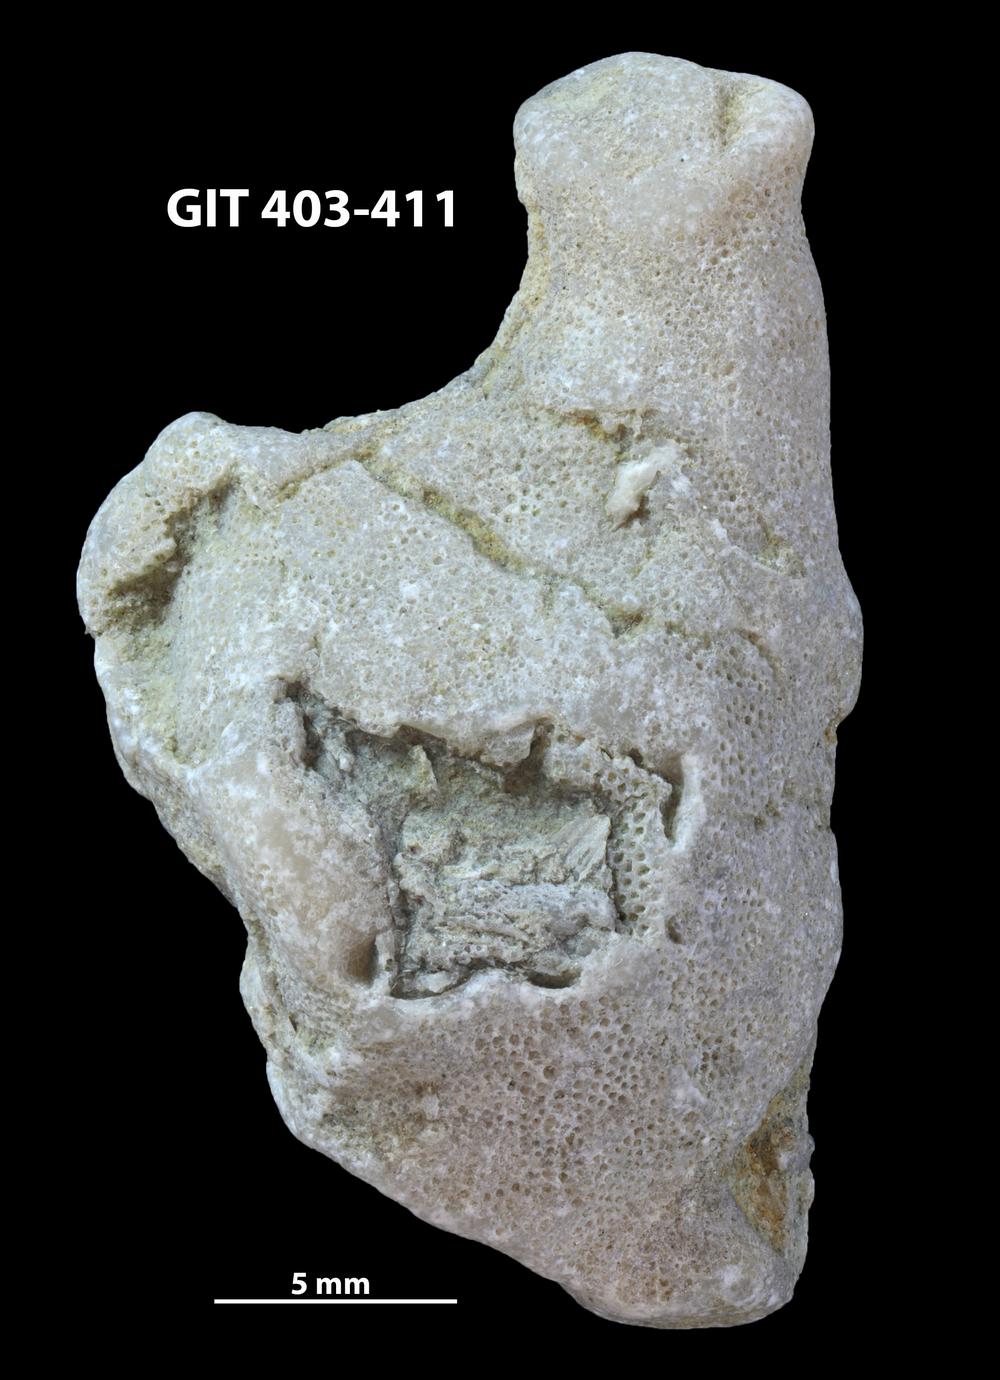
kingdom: Animalia
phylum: Bryozoa
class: Stenolaemata
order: Cystoporida
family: Fistuliporidae
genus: Fistulipora
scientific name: Fistulipora przhidolensis
